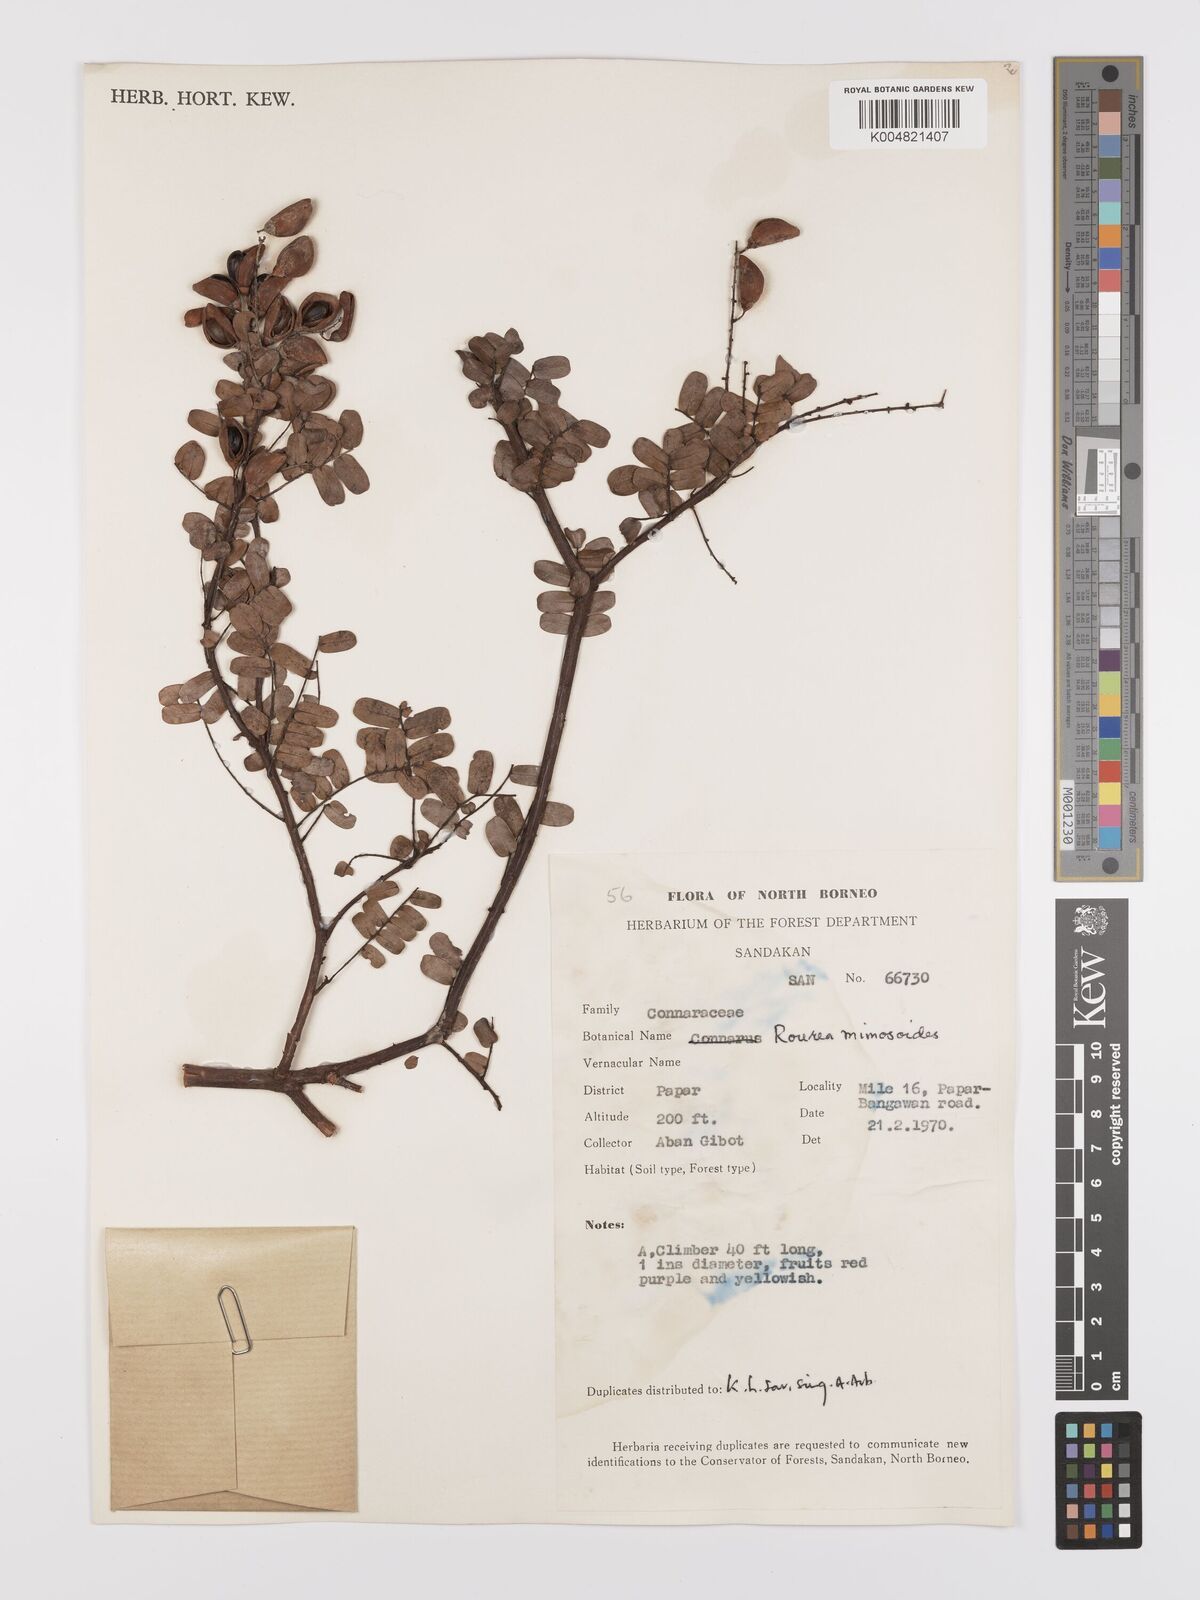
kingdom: Plantae
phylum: Tracheophyta
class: Magnoliopsida
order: Oxalidales
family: Connaraceae
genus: Rourea
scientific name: Rourea mimosoides
